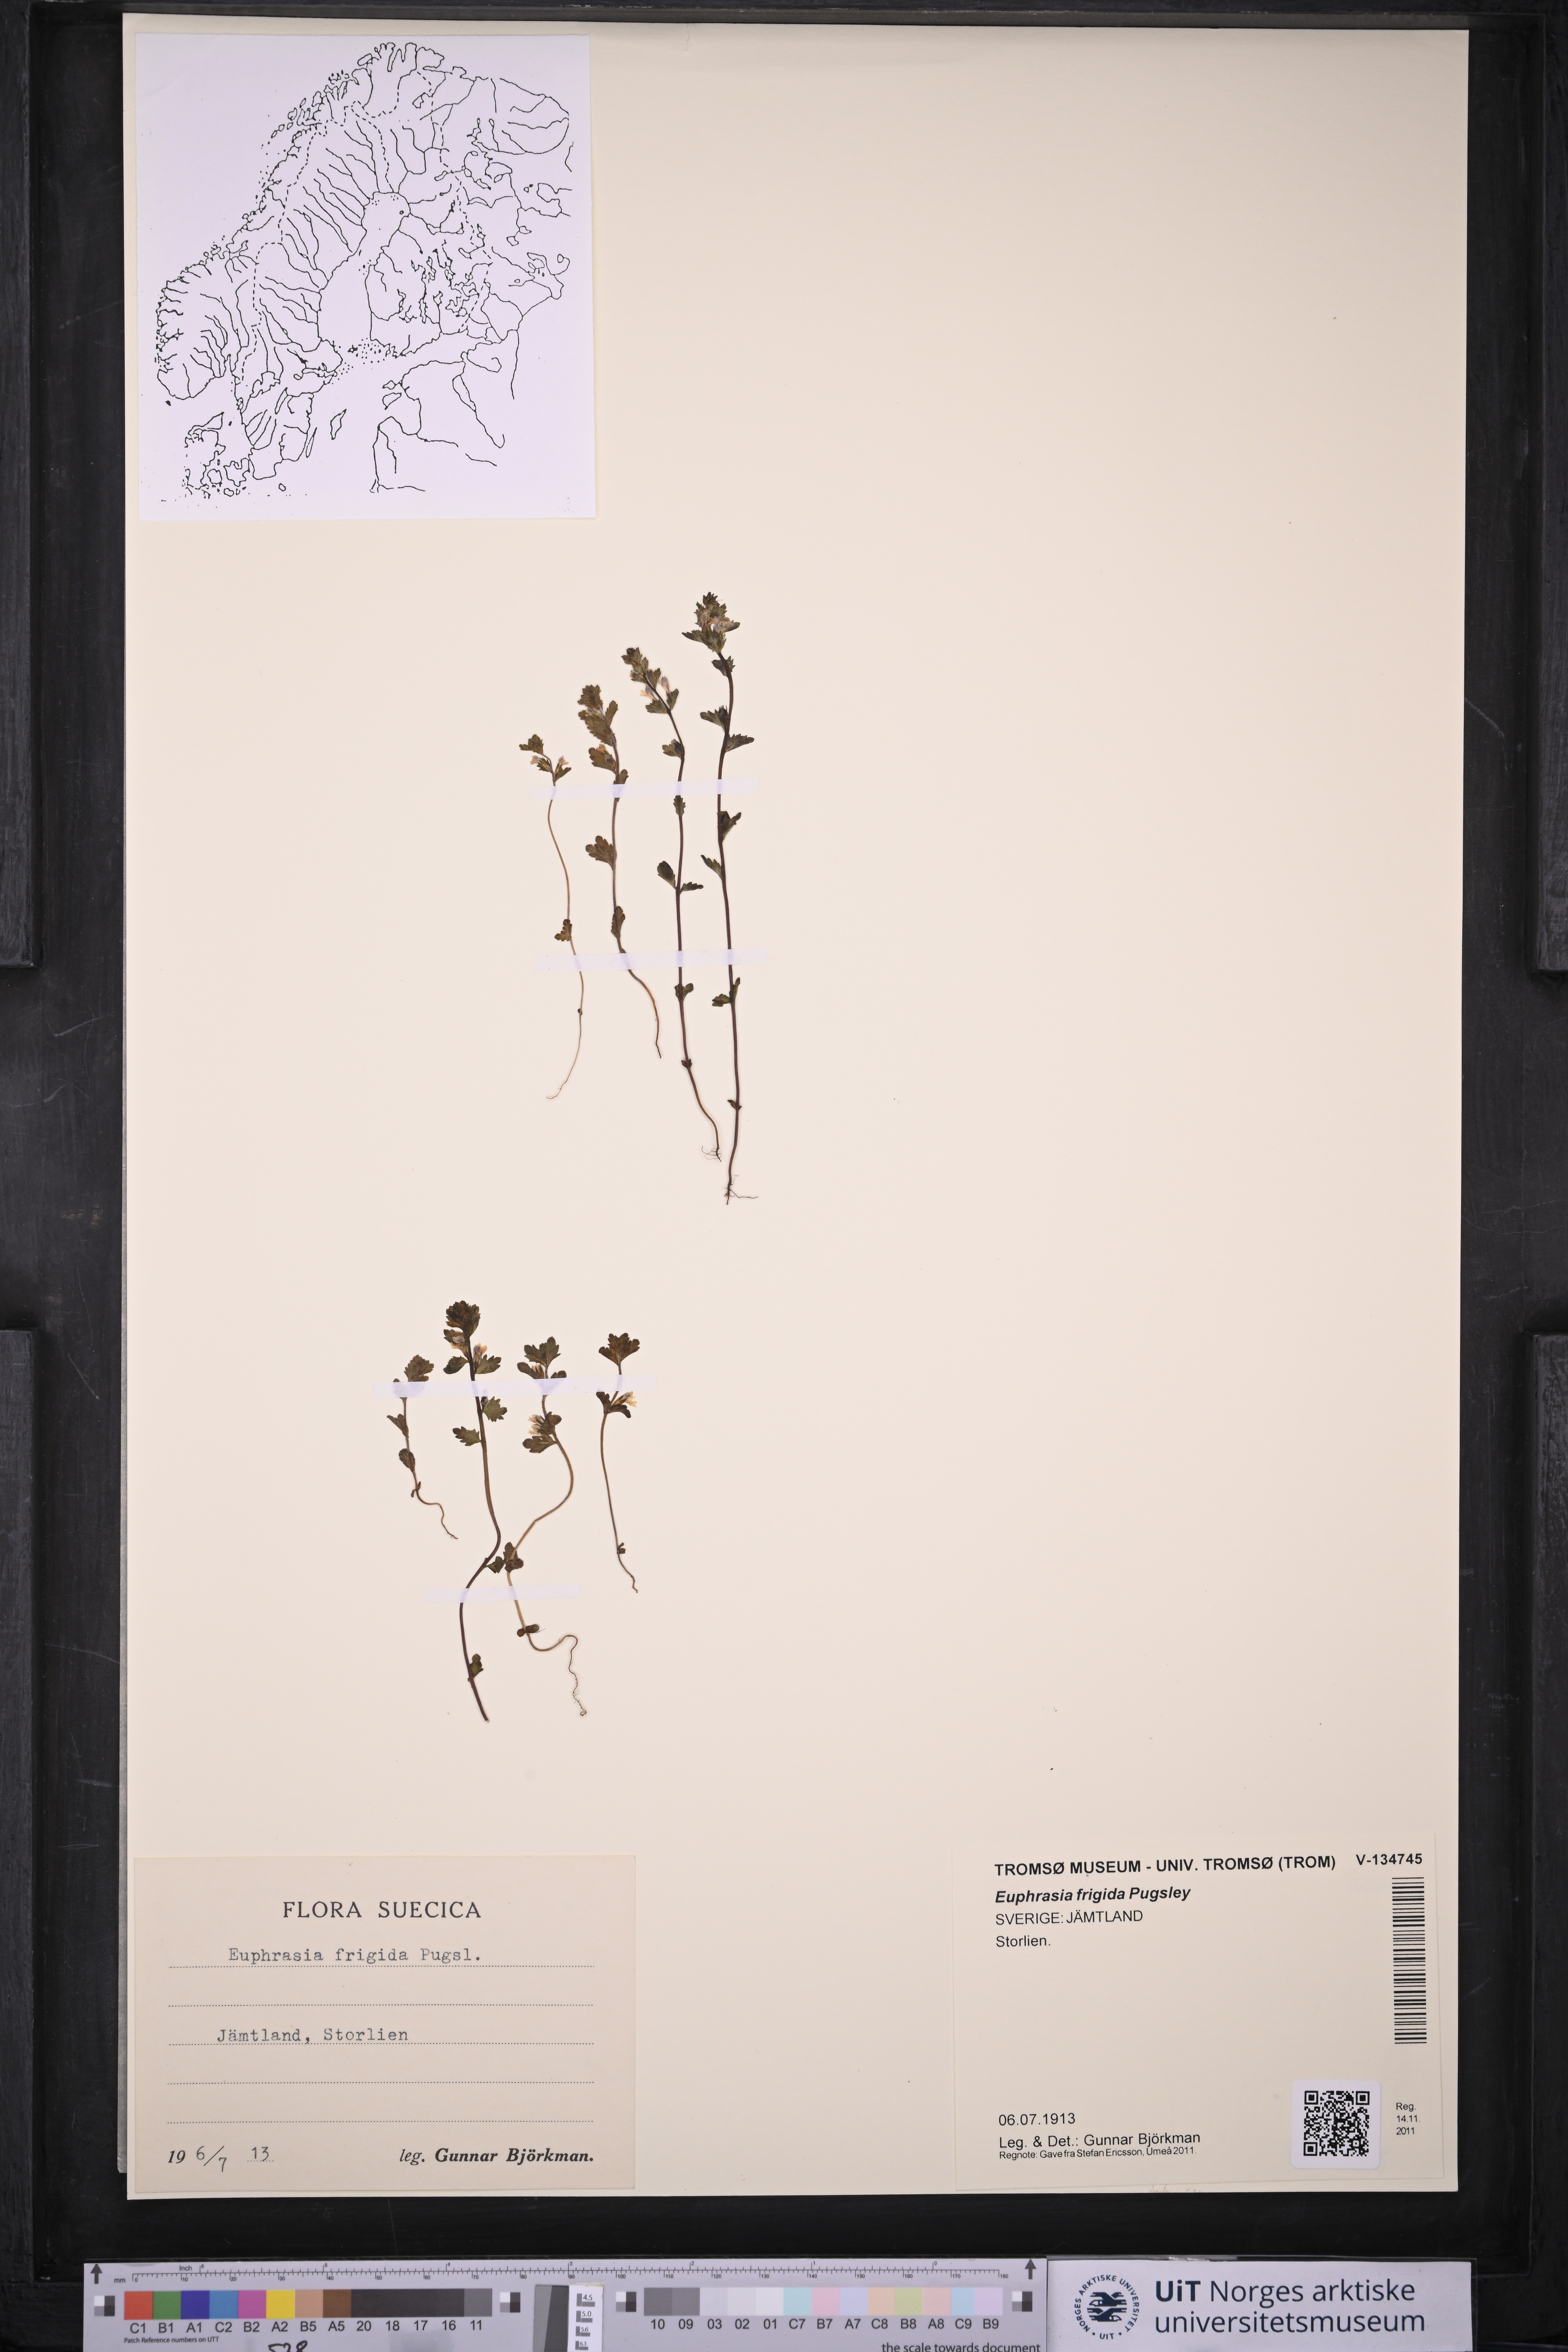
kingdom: Plantae
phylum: Tracheophyta
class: Magnoliopsida
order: Lamiales
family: Orobanchaceae
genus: Euphrasia
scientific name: Euphrasia frigida
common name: An eyebright
